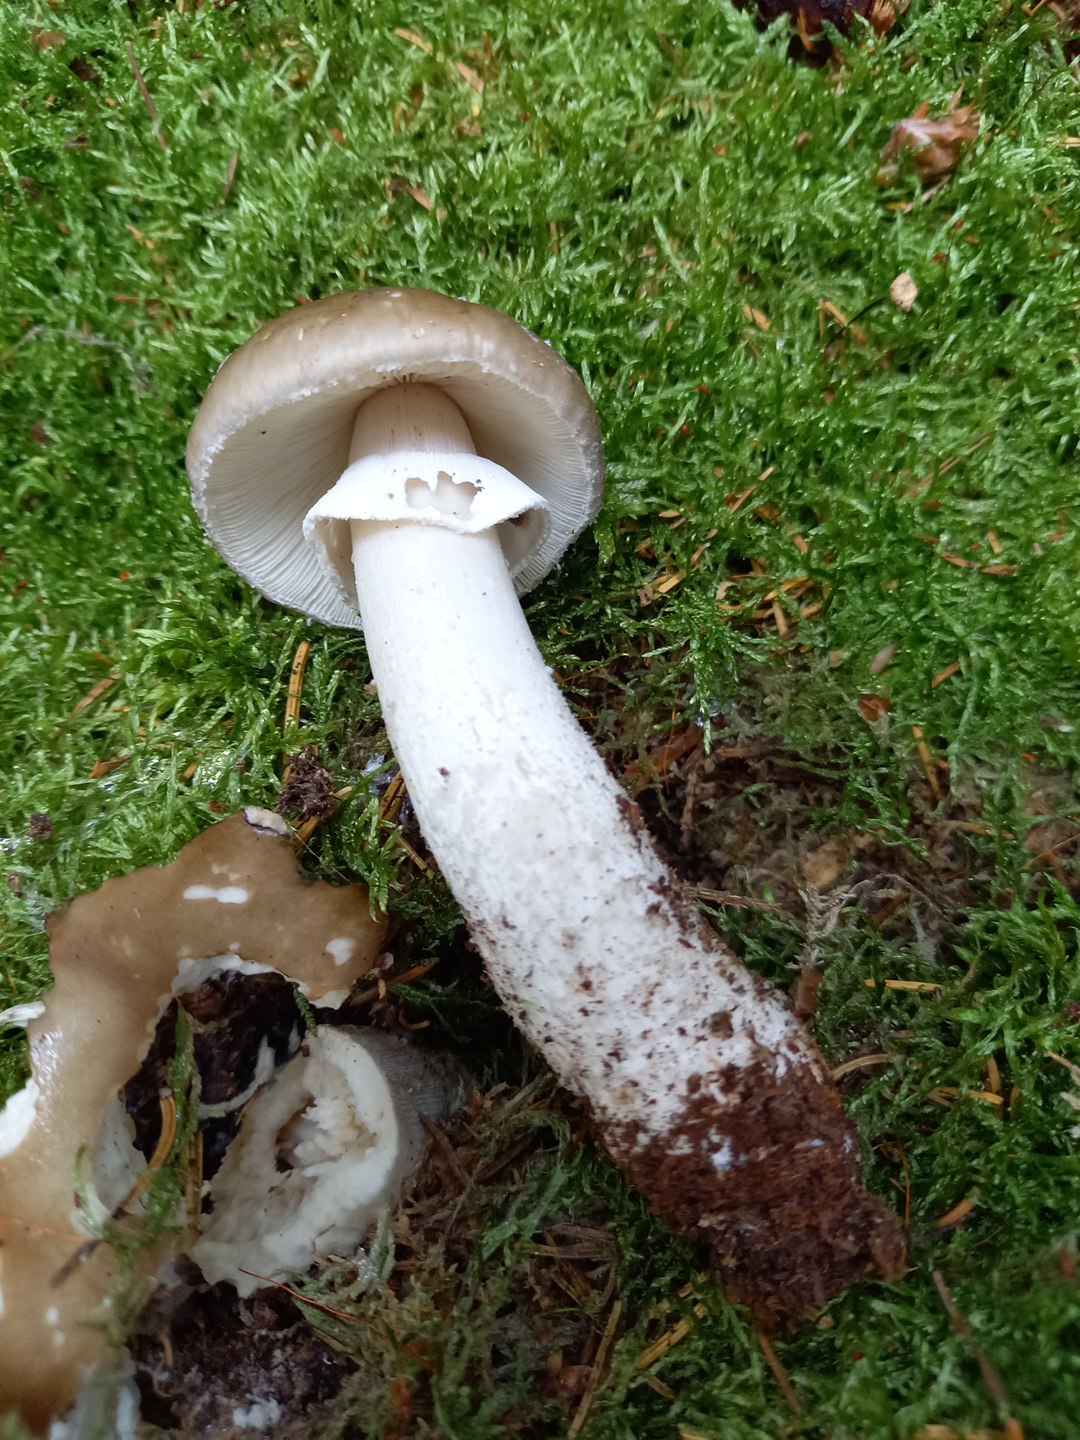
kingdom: Fungi
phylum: Basidiomycota
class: Agaricomycetes
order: Agaricales
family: Amanitaceae
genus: Amanita
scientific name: Amanita
